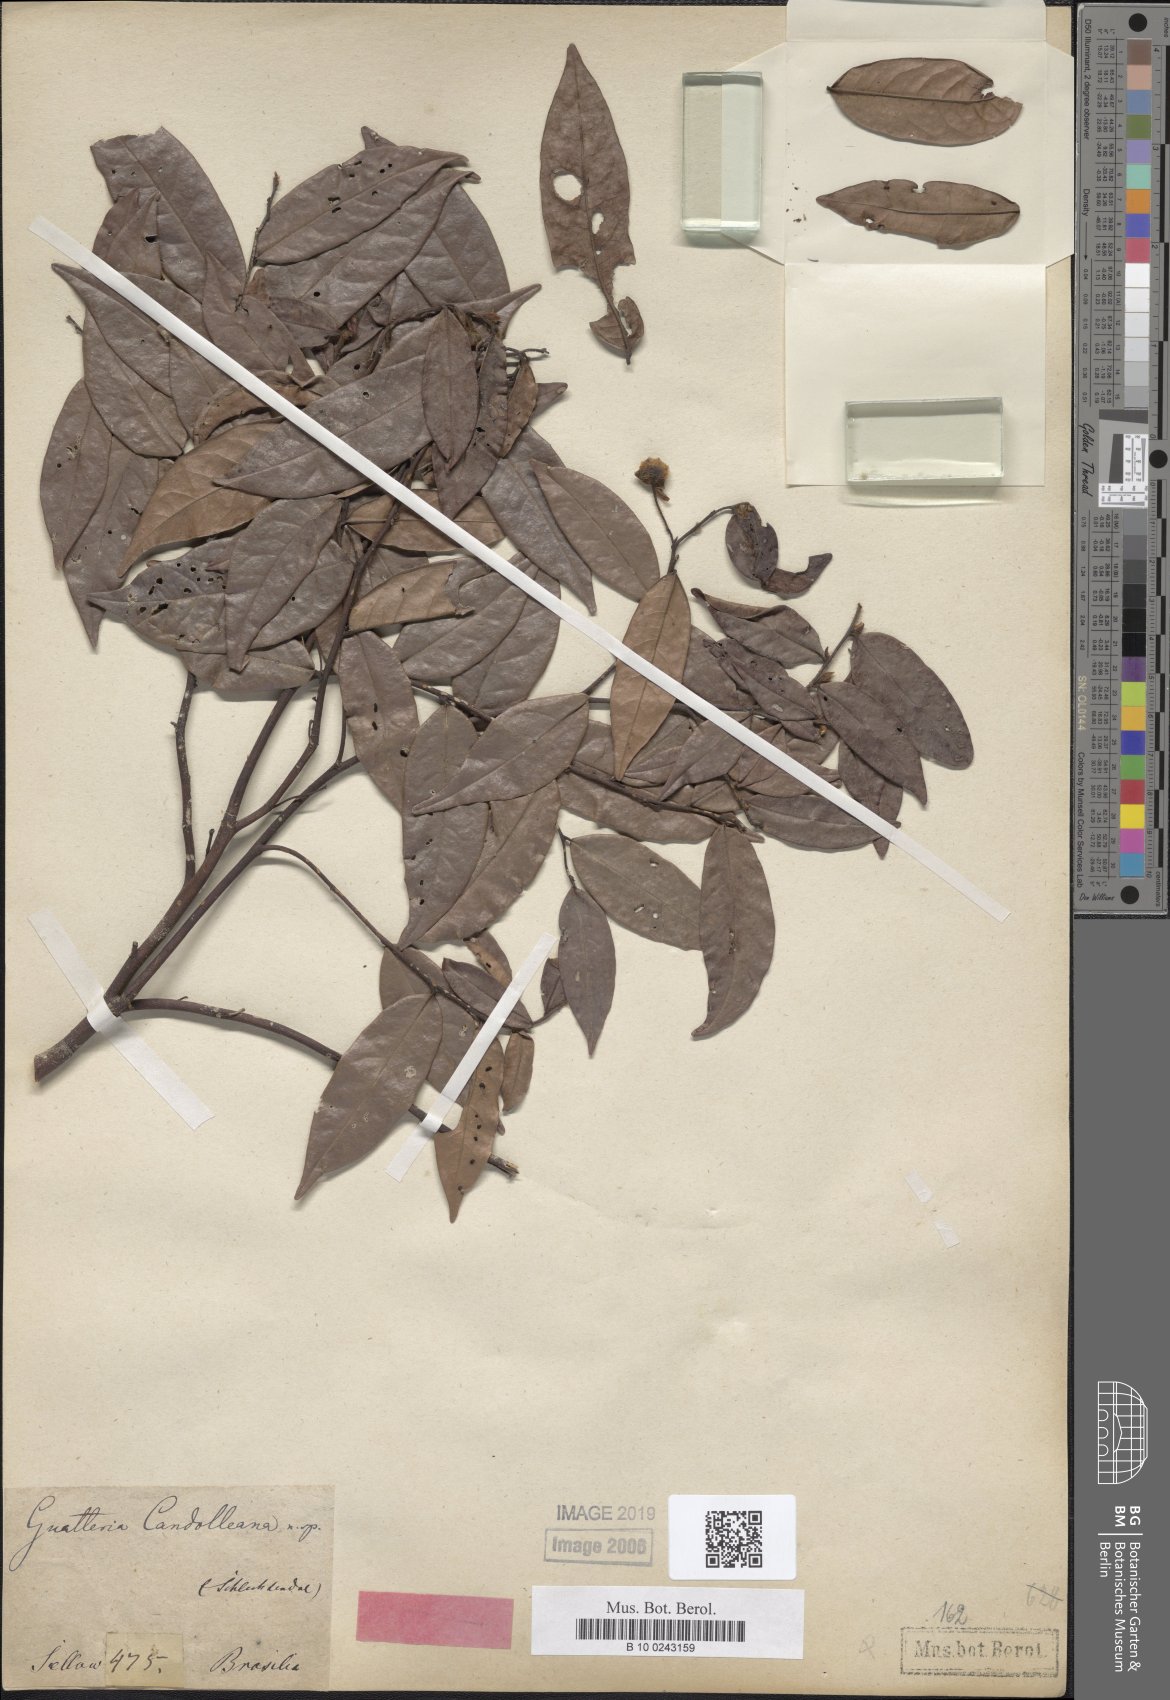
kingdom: Plantae
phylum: Tracheophyta
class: Magnoliopsida
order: Magnoliales
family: Annonaceae
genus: Guatteria
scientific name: Guatteria candolleana
